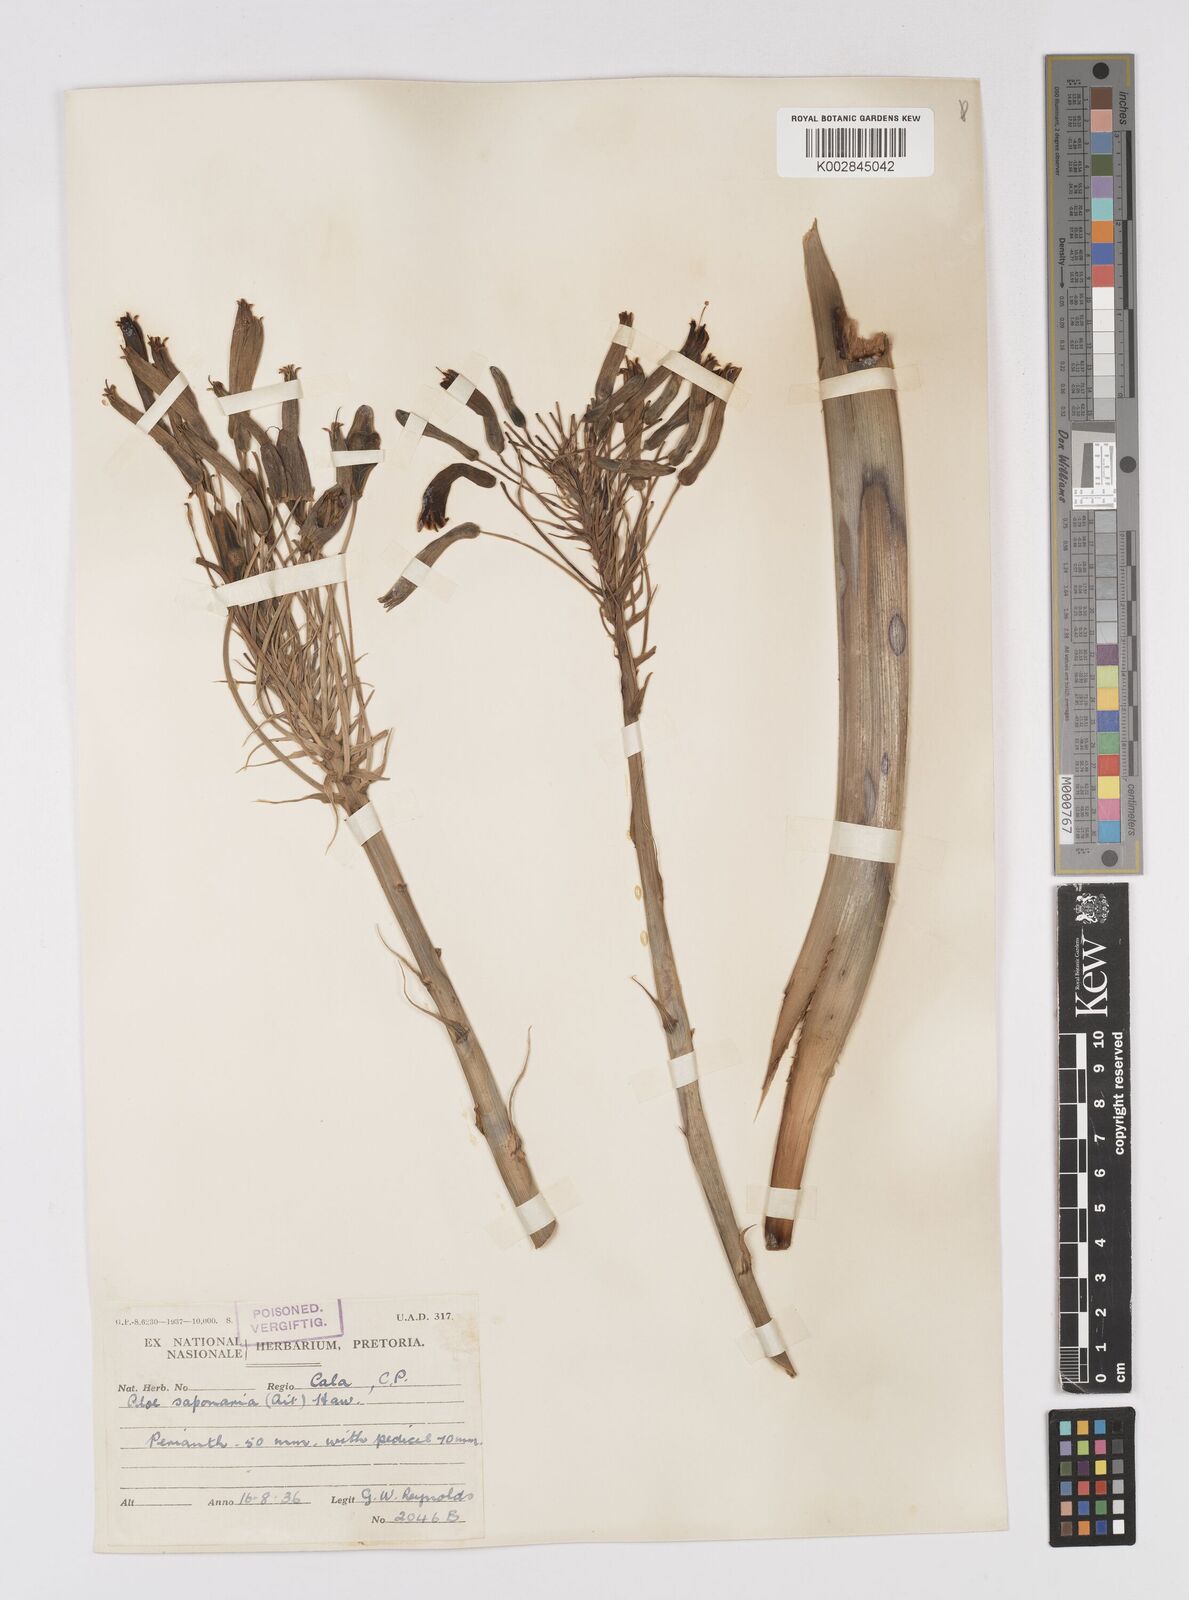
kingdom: Plantae
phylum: Tracheophyta
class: Liliopsida
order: Asparagales
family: Asphodelaceae
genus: Aloe
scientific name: Aloe microstigma
